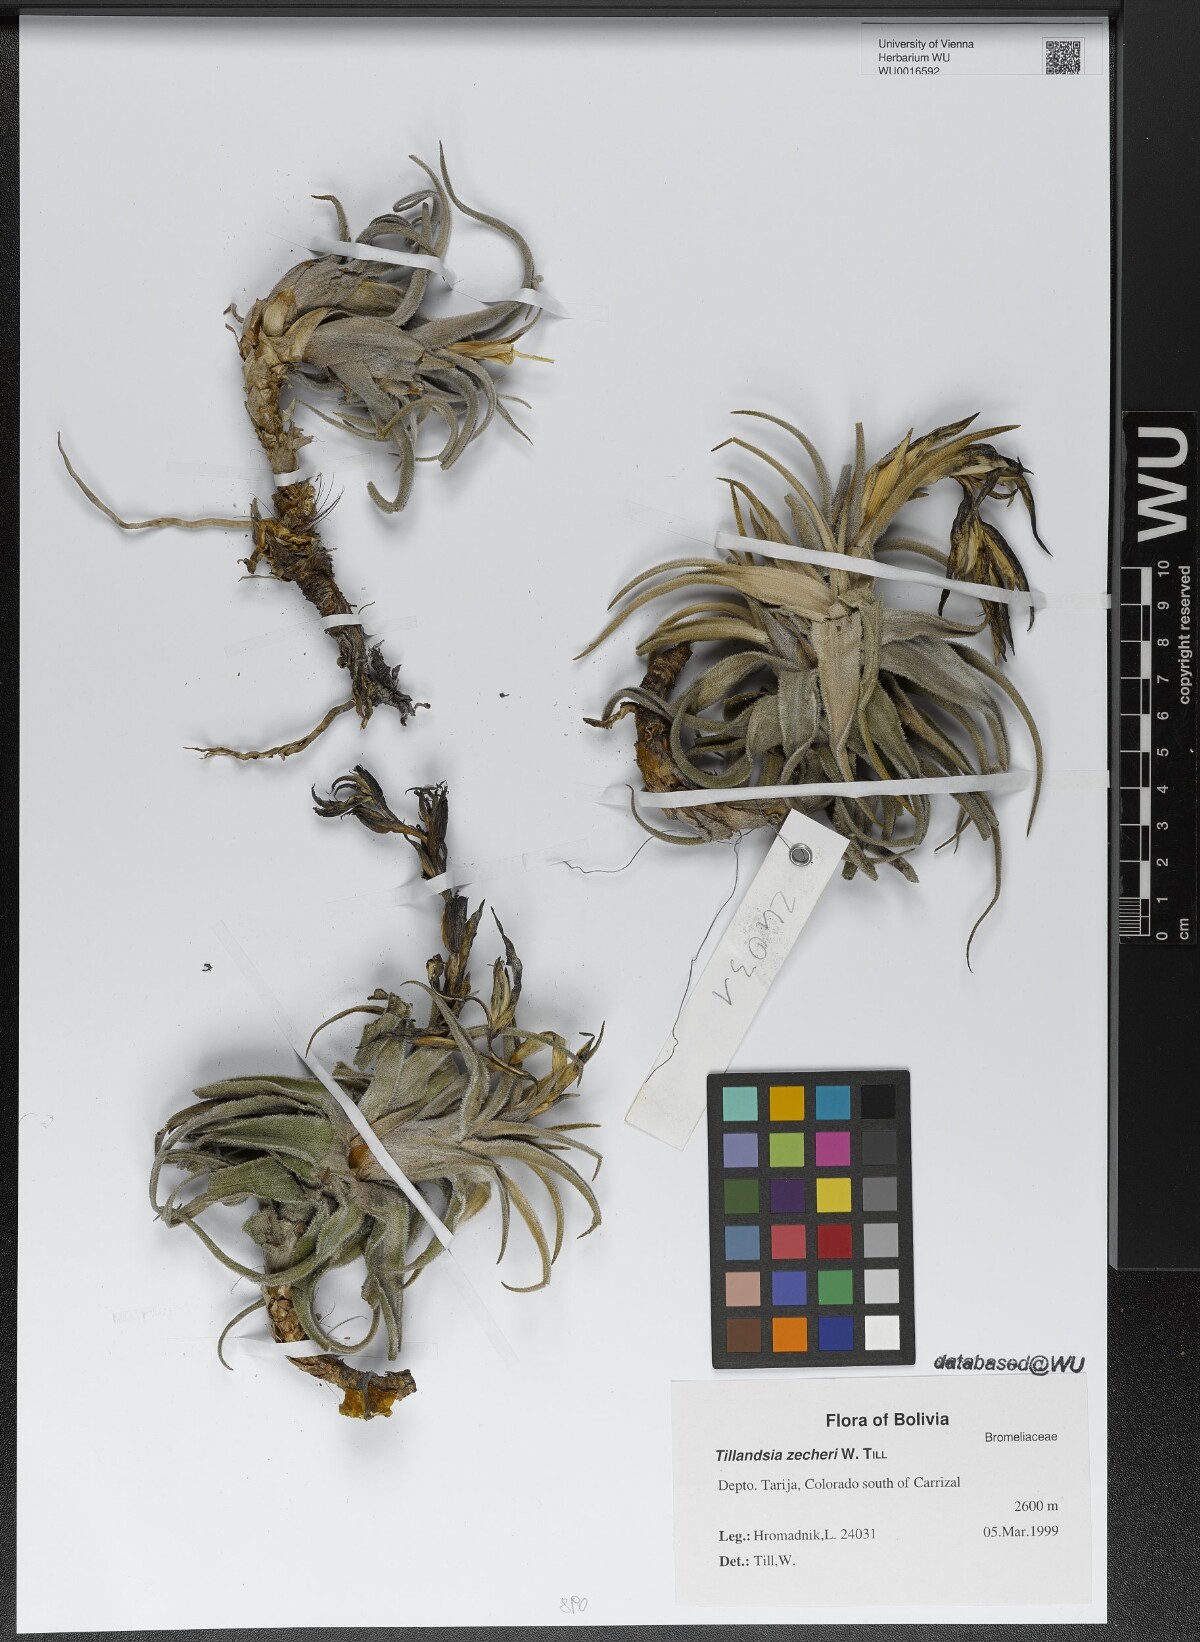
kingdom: Plantae
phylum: Tracheophyta
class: Liliopsida
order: Poales
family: Bromeliaceae
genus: Tillandsia
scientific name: Tillandsia zecheri
